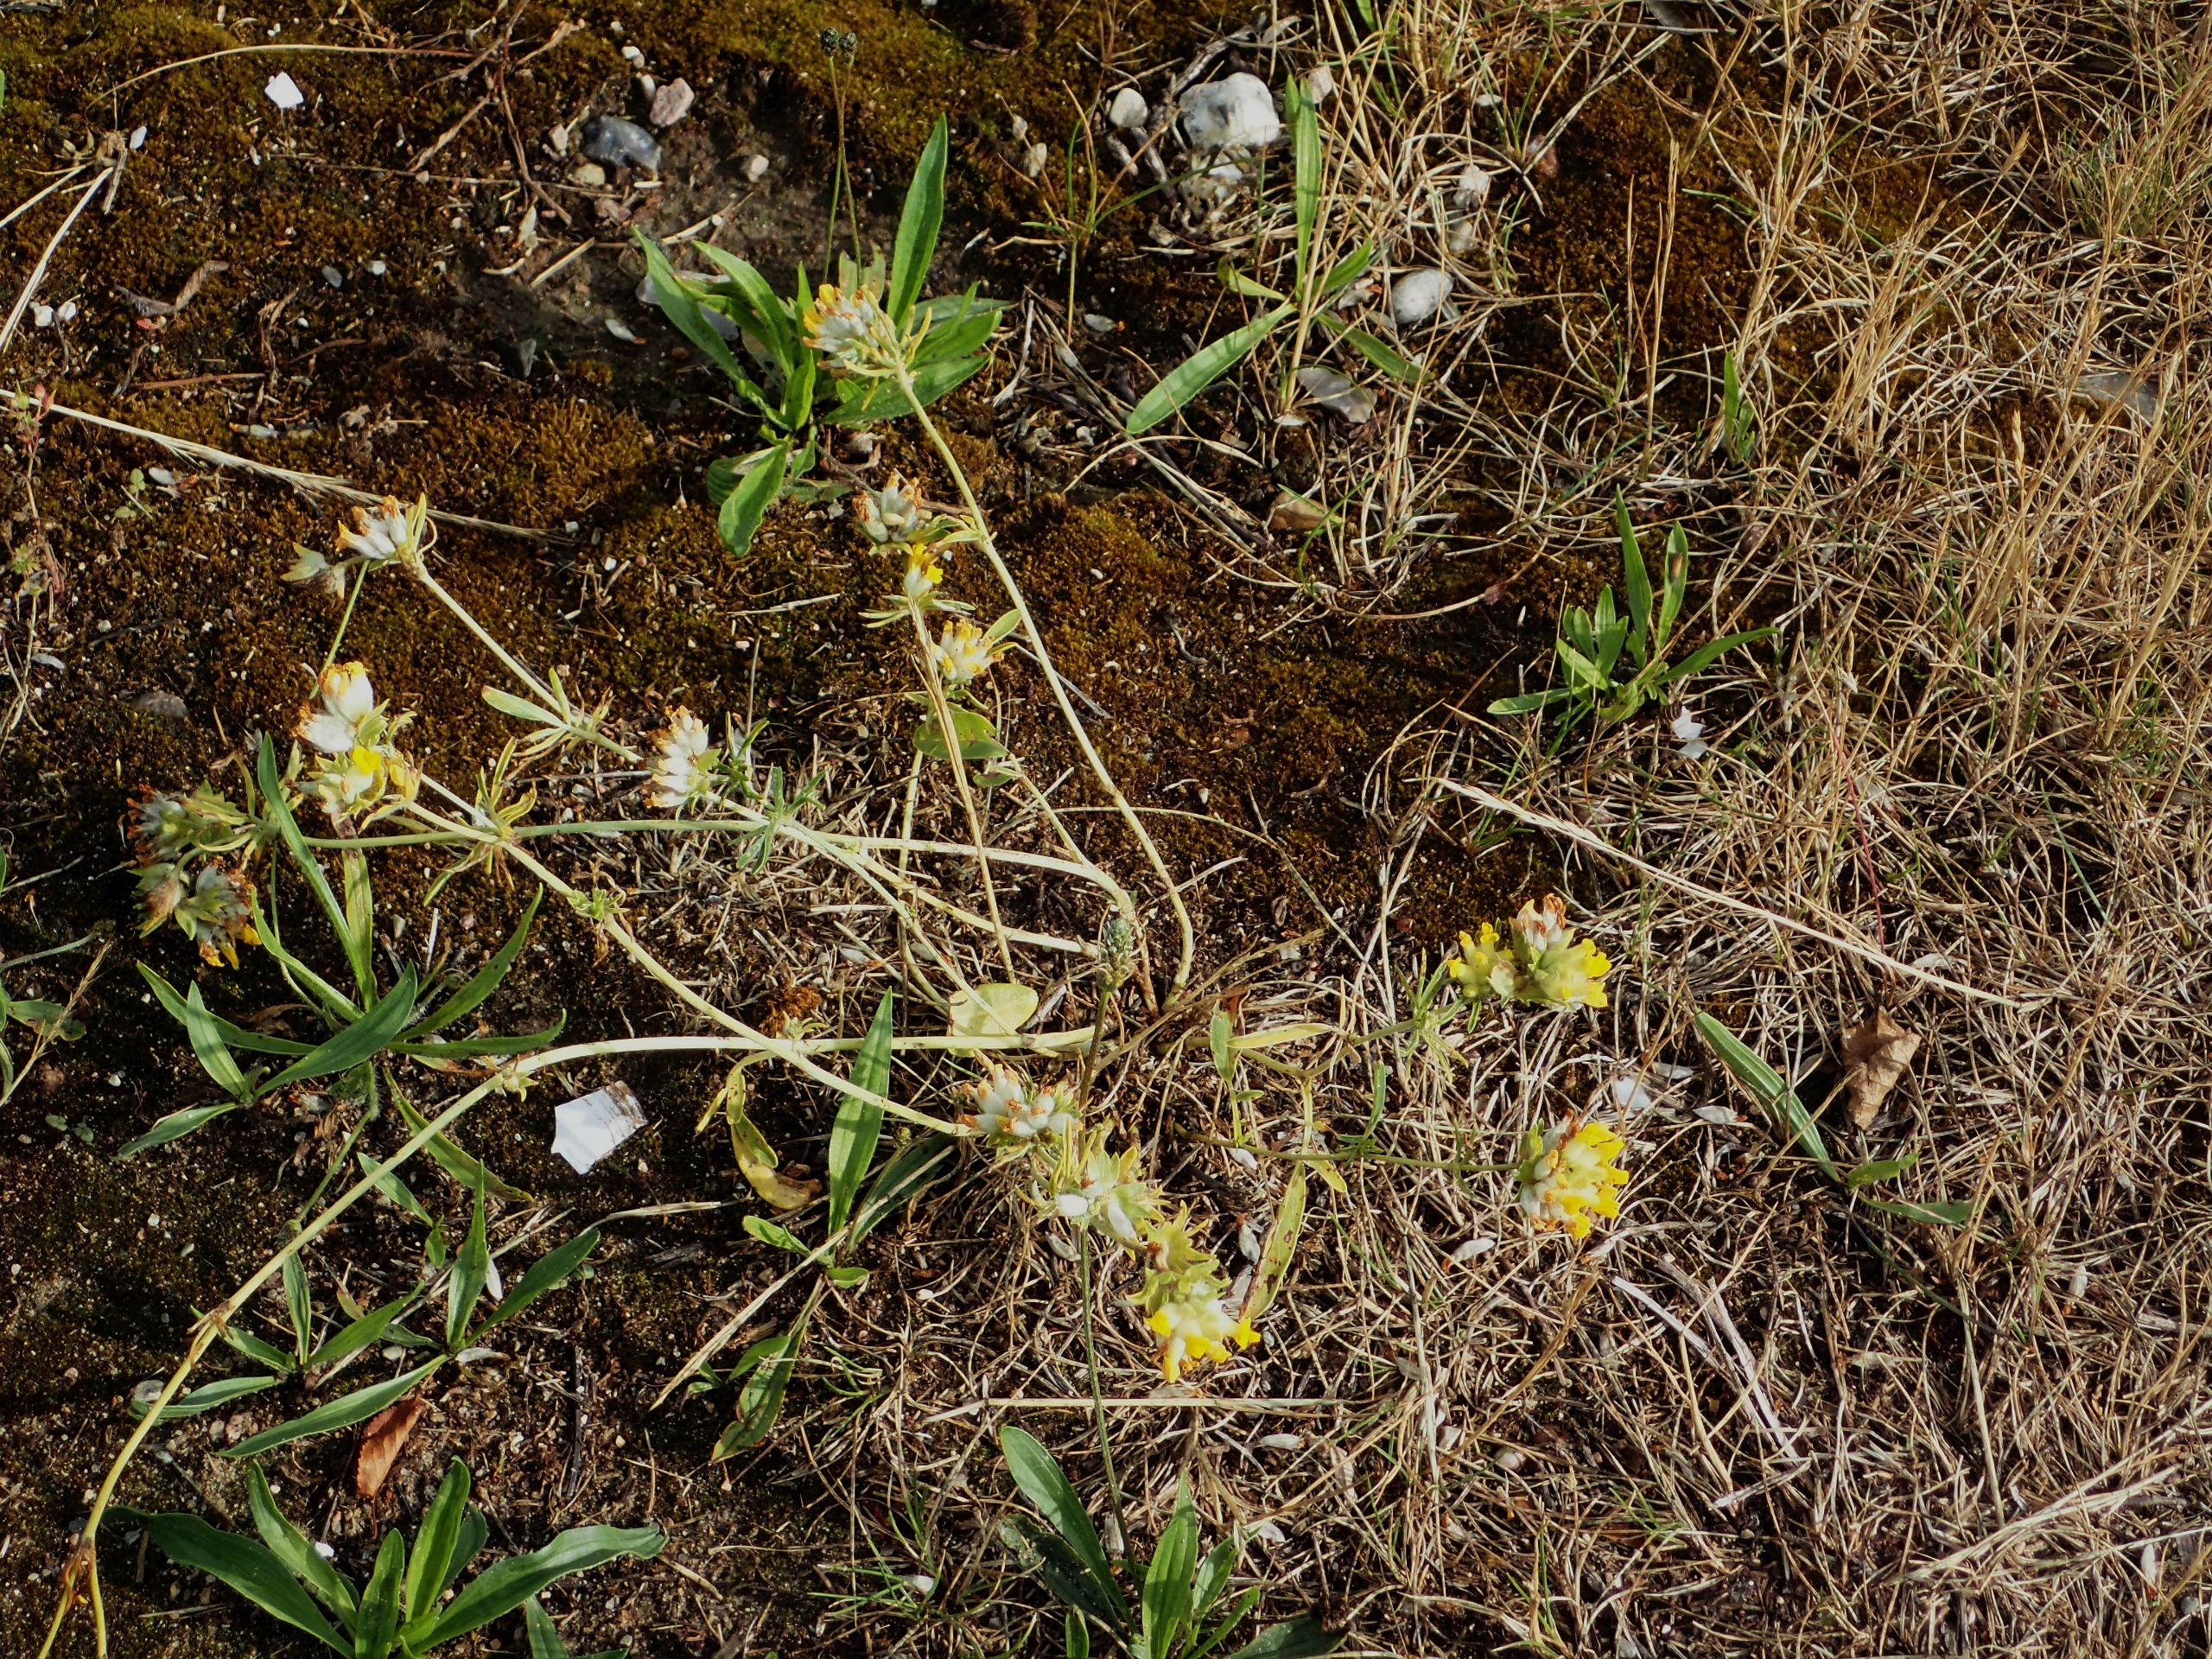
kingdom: Plantae
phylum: Tracheophyta
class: Magnoliopsida
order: Fabales
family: Fabaceae
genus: Anthyllis
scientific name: Anthyllis vulneraria
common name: Rundbælg
